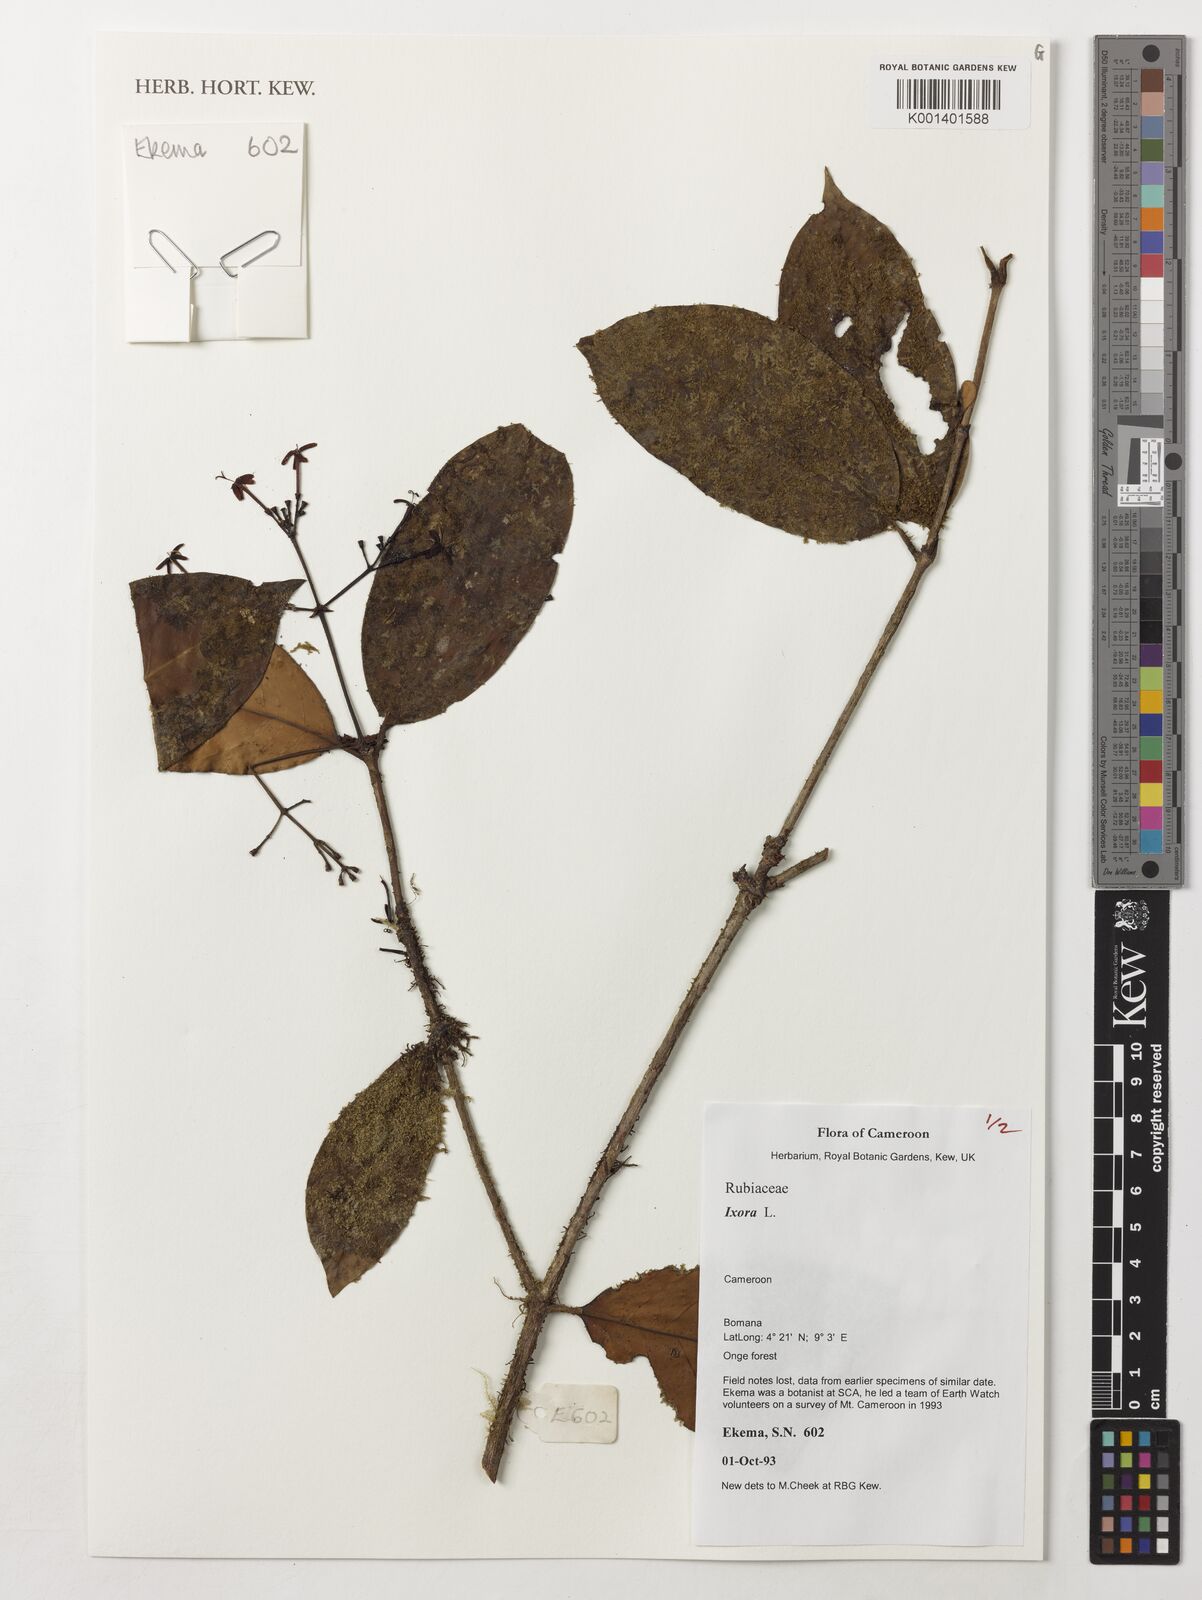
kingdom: Plantae
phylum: Tracheophyta
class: Magnoliopsida
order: Gentianales
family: Rubiaceae
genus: Ixora
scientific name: Ixora
